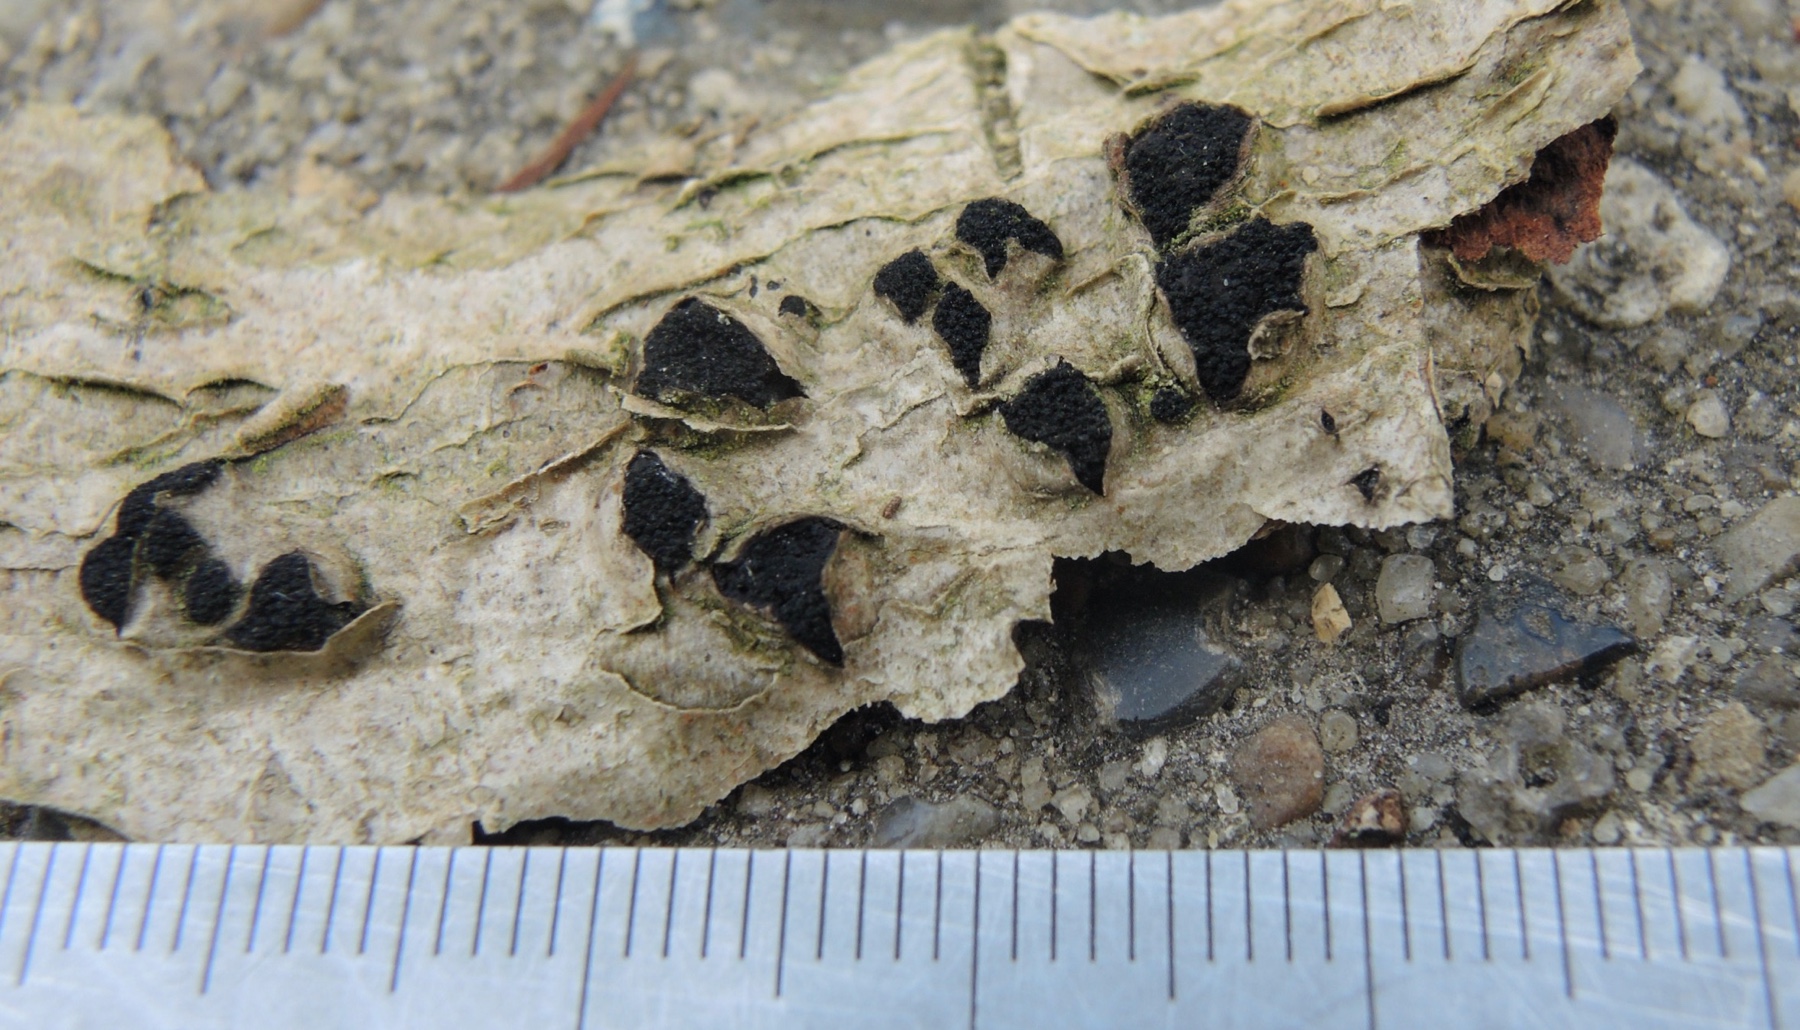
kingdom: Fungi
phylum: Ascomycota
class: Sordariomycetes
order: Xylariales
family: Diatrypaceae
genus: Eutypella
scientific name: Eutypella sorbi
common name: rønne-kulskorpe
